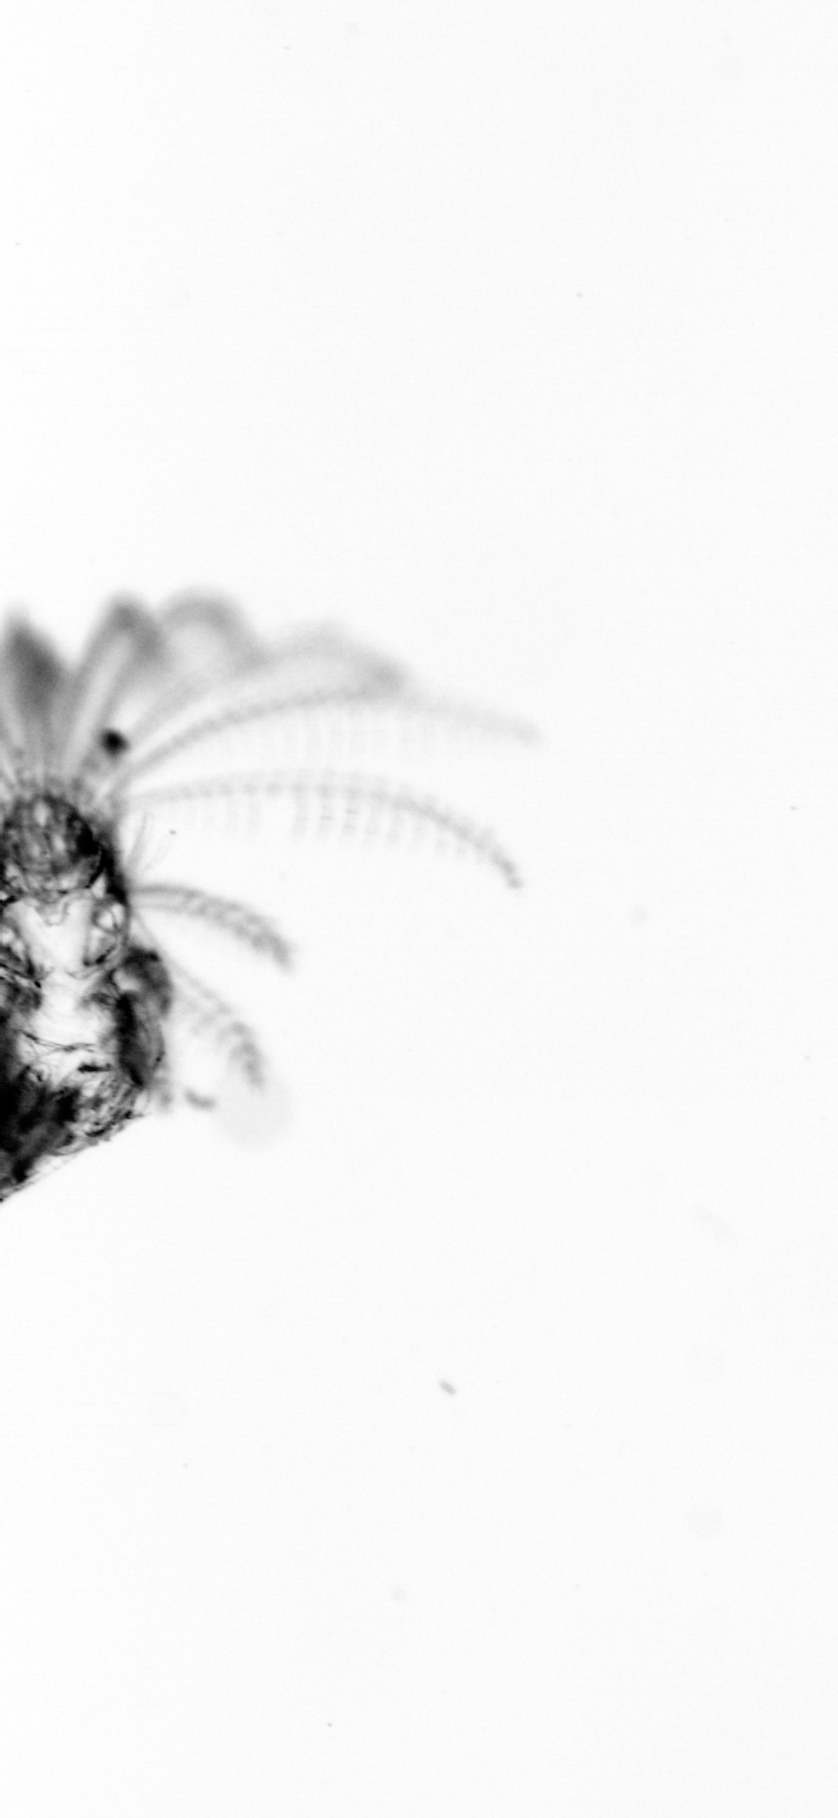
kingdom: Animalia
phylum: Arthropoda
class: Maxillopoda
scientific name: Maxillopoda
